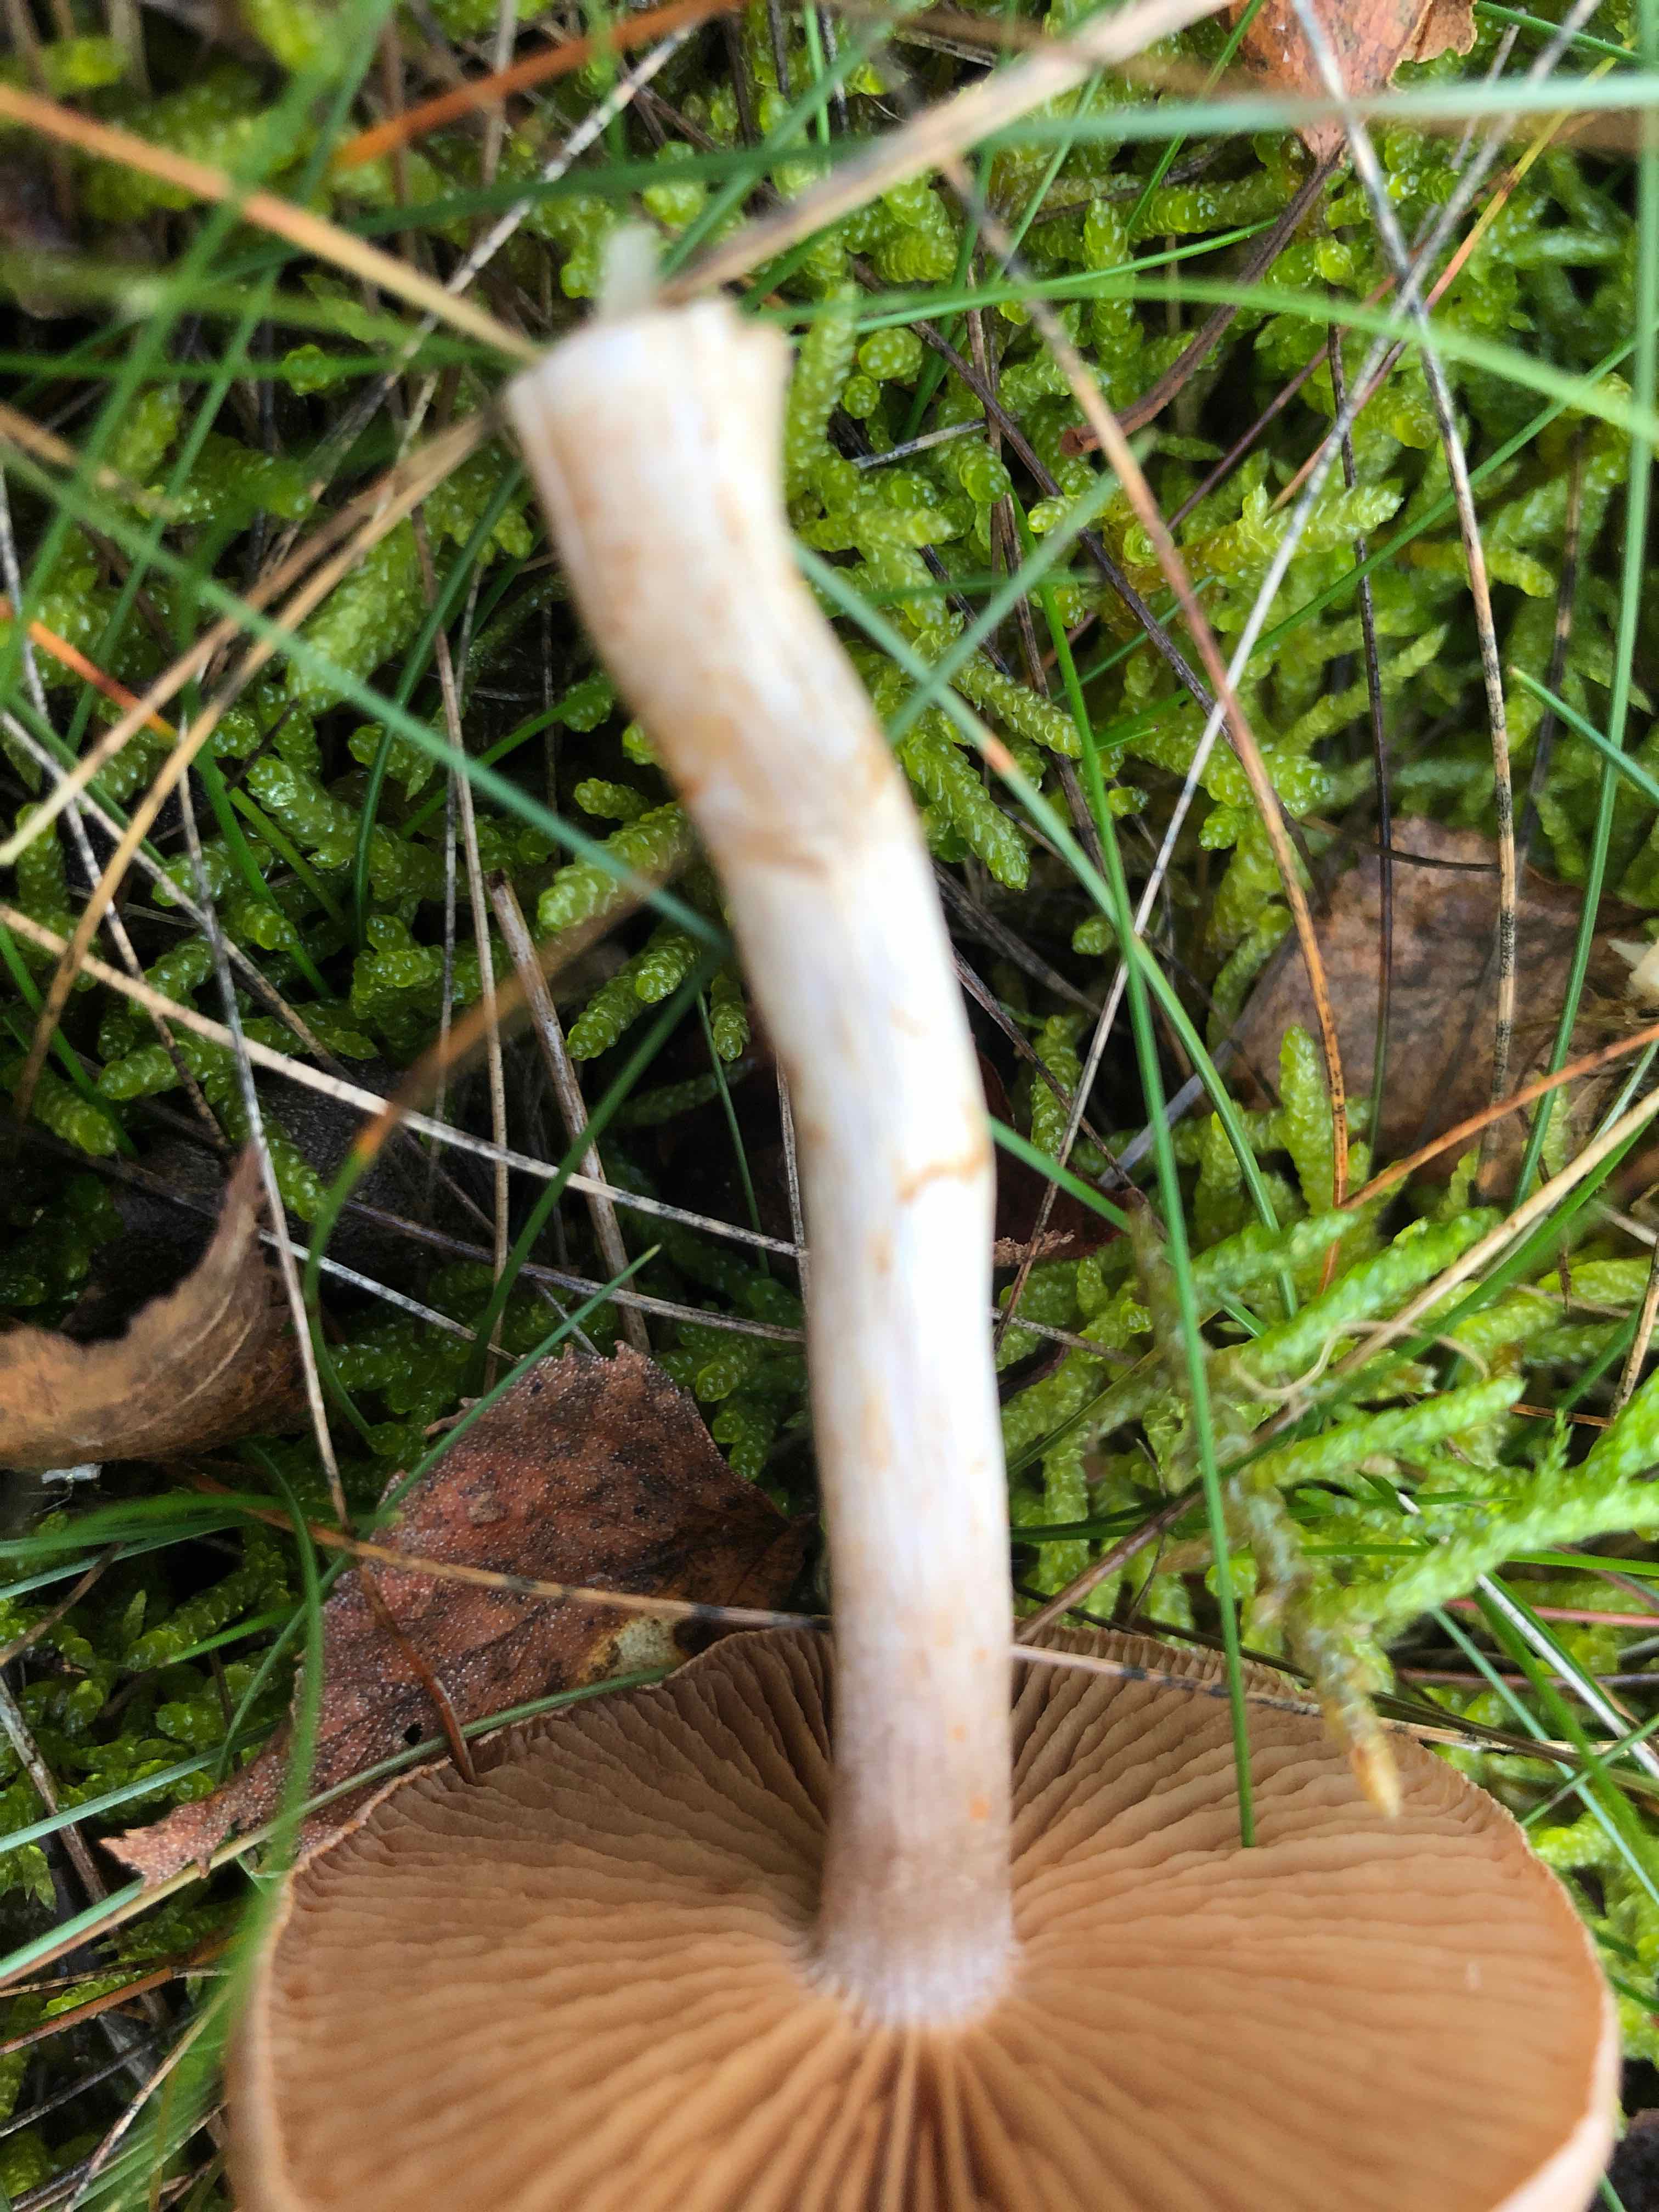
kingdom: Fungi
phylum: Basidiomycota
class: Agaricomycetes
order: Agaricales
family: Cortinariaceae
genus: Cortinarius
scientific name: Cortinarius
